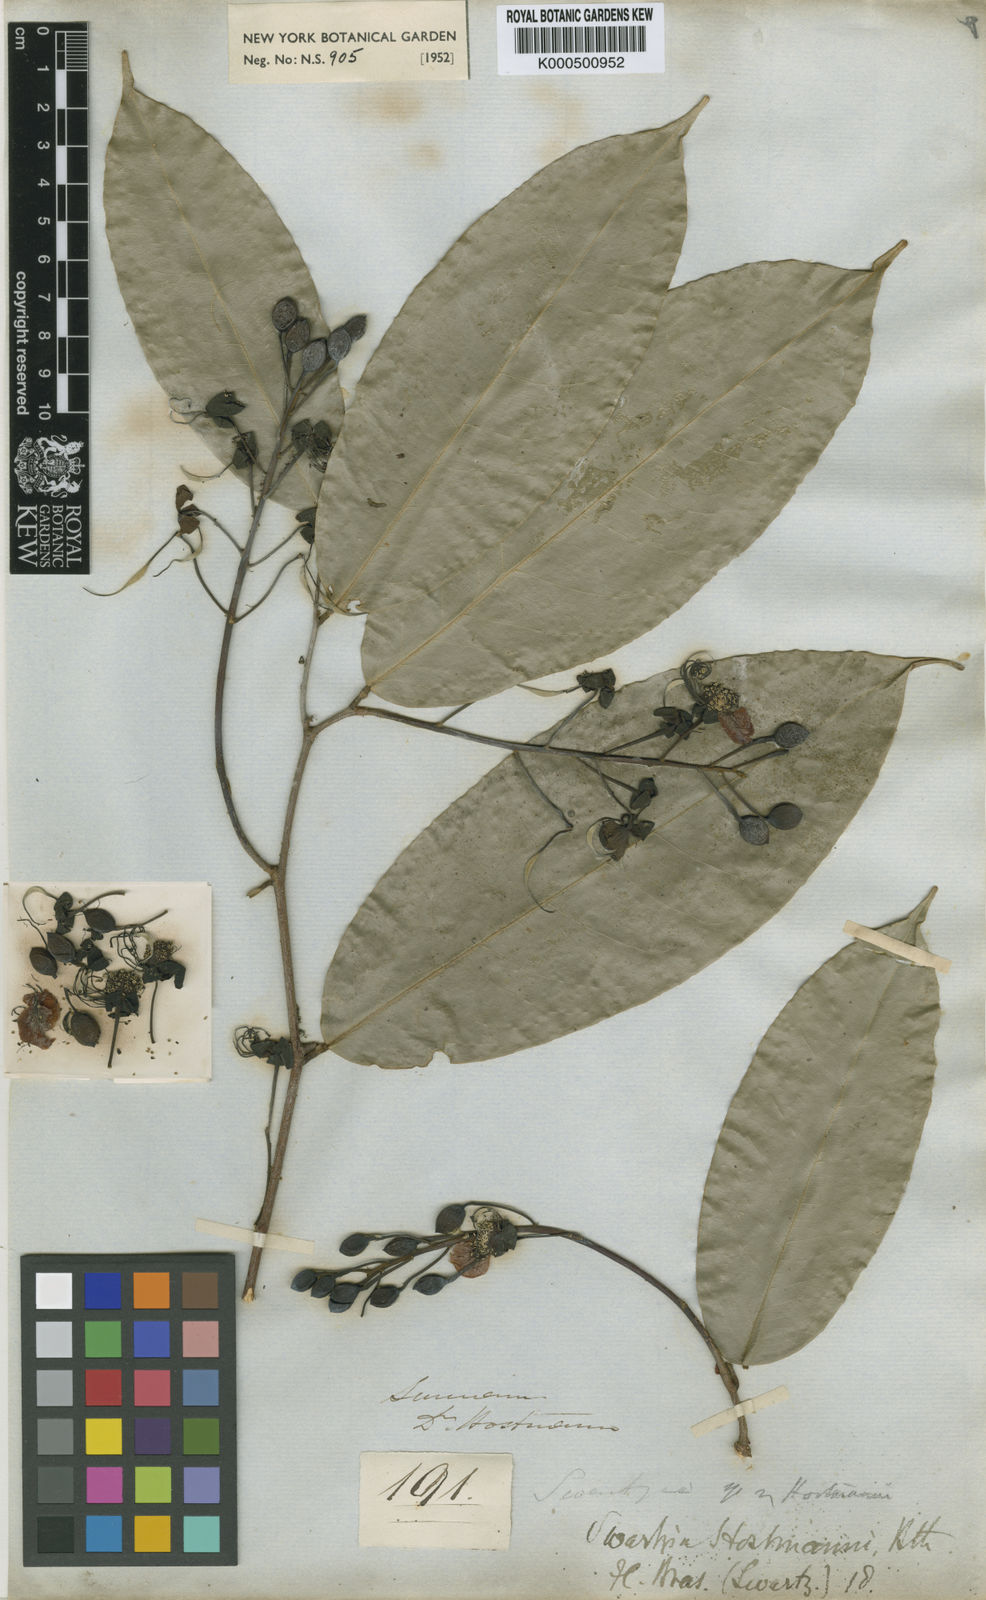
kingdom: Plantae
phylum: Tracheophyta
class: Magnoliopsida
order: Fabales
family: Fabaceae
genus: Swartzia
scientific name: Swartzia hostmannii
